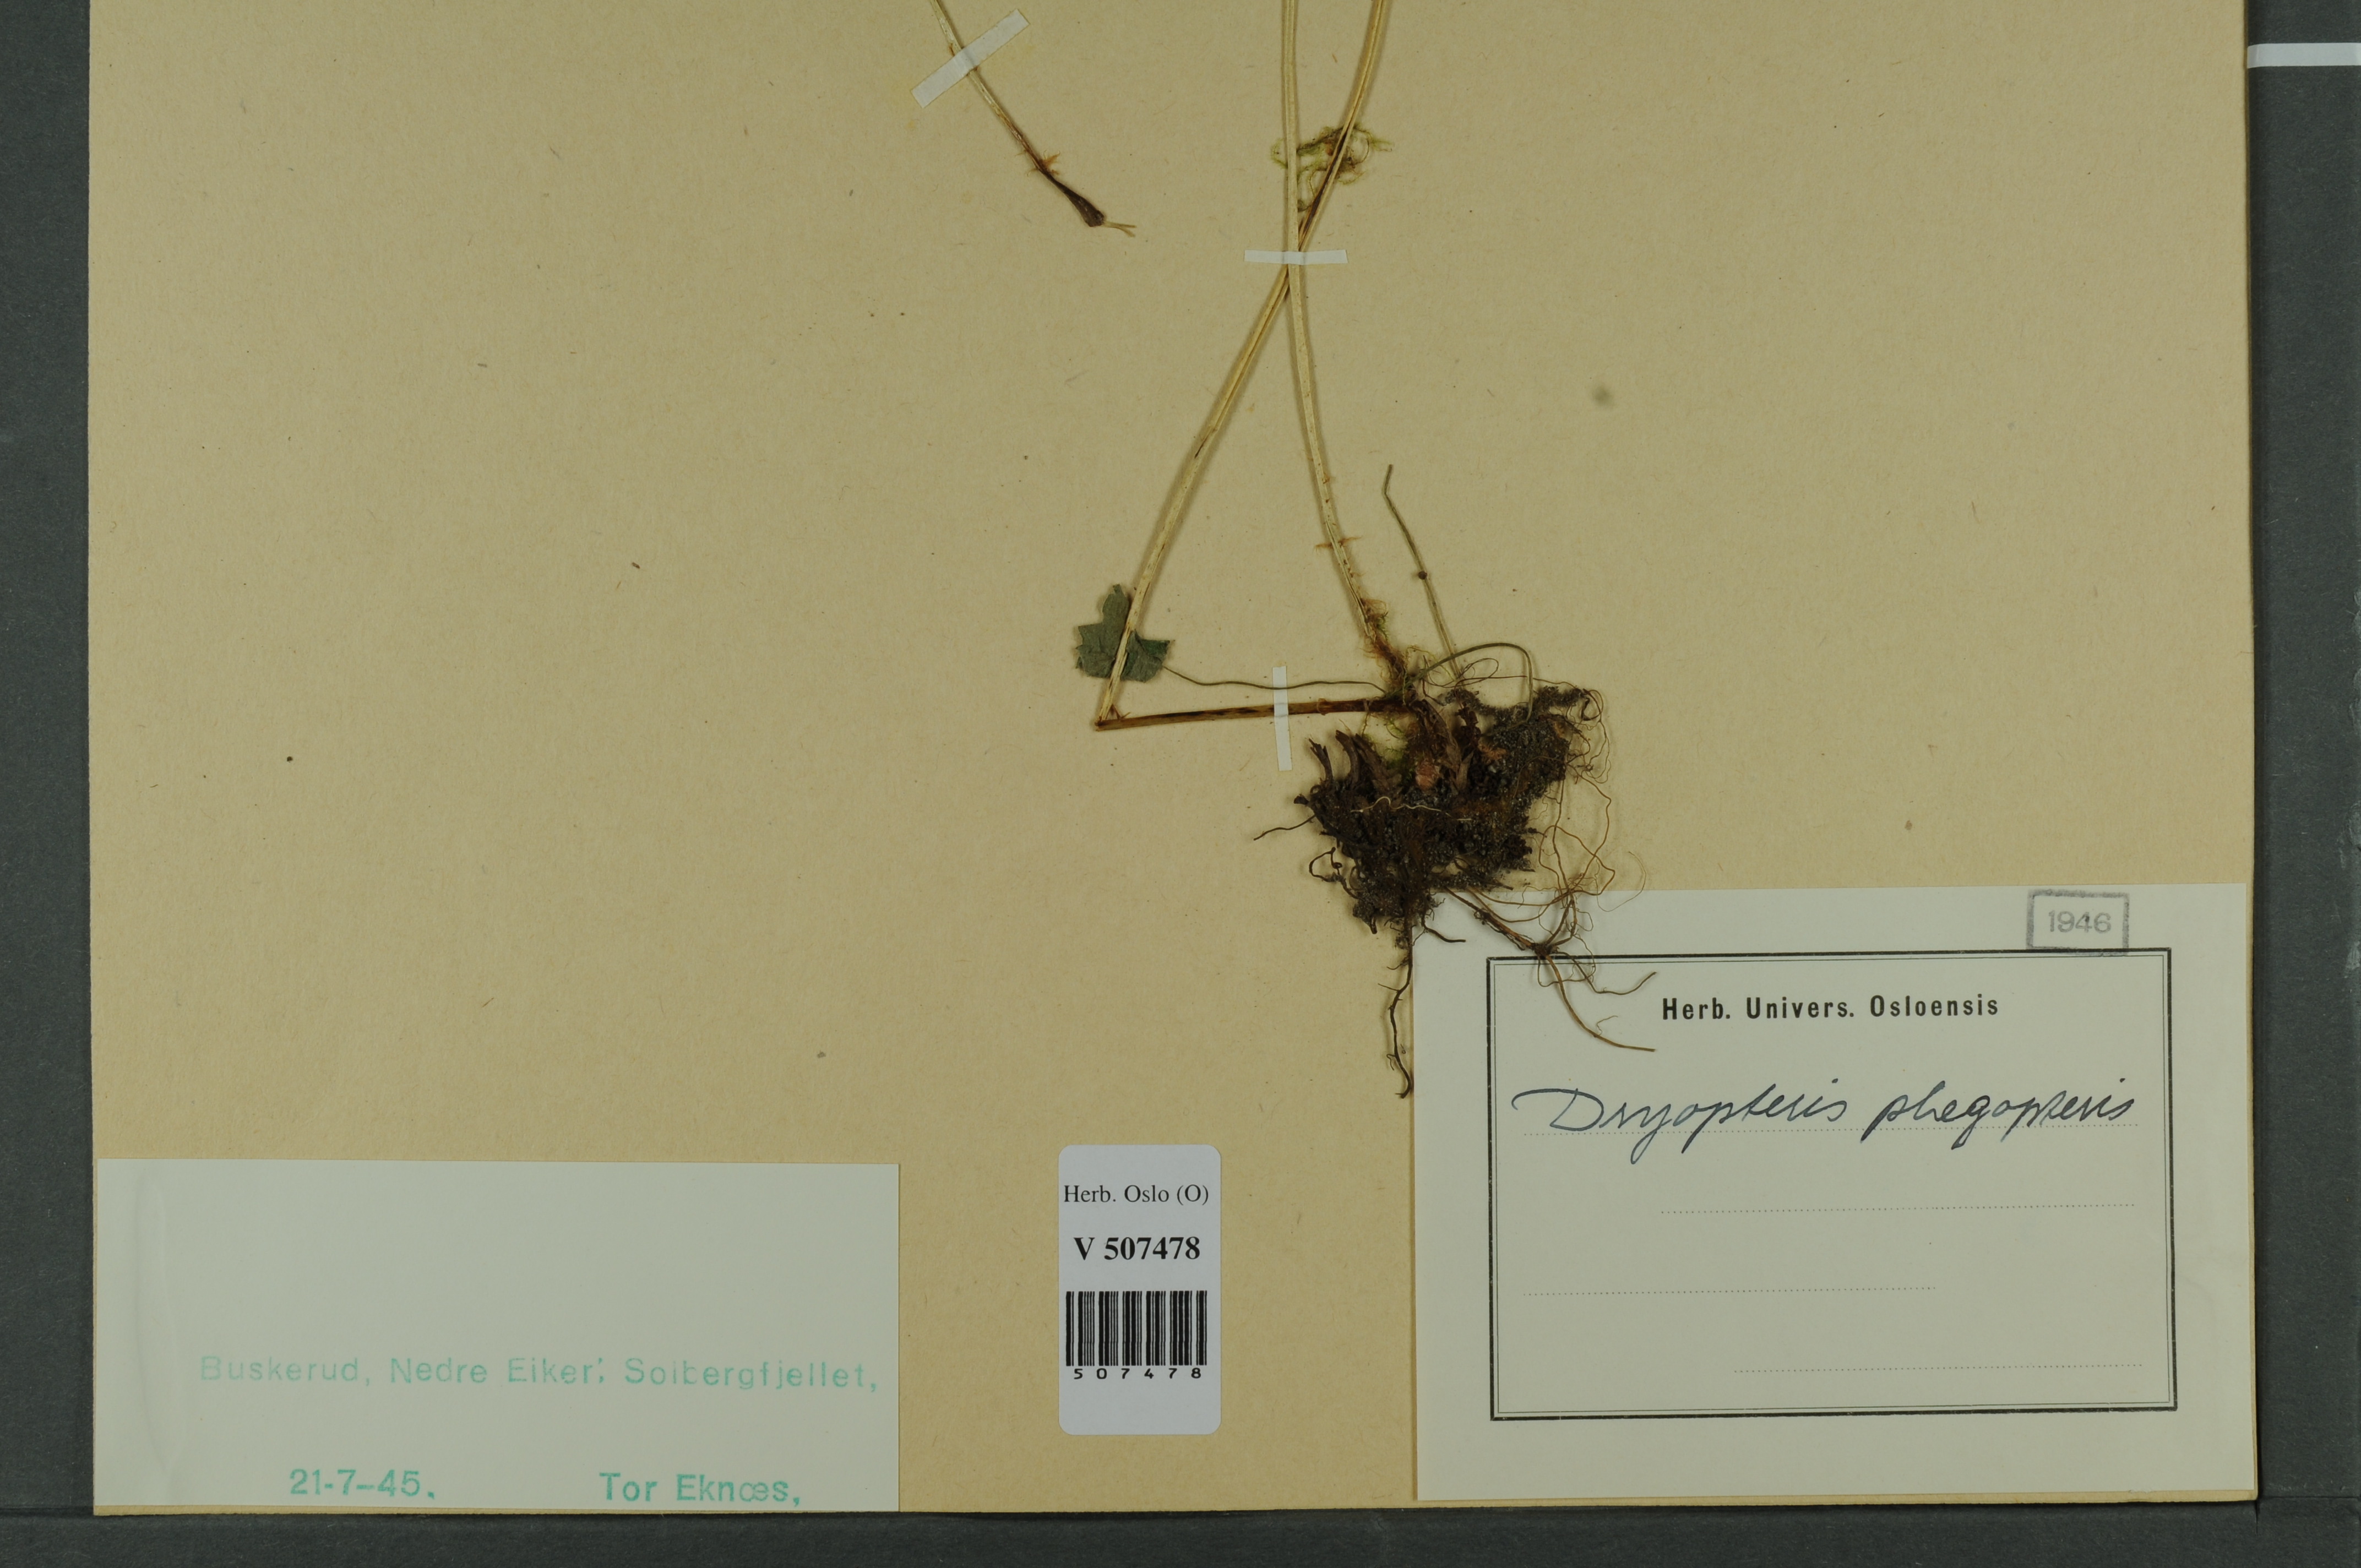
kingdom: Plantae
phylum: Tracheophyta
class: Polypodiopsida
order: Polypodiales
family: Thelypteridaceae
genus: Phegopteris
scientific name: Phegopteris connectilis
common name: Beech fern
